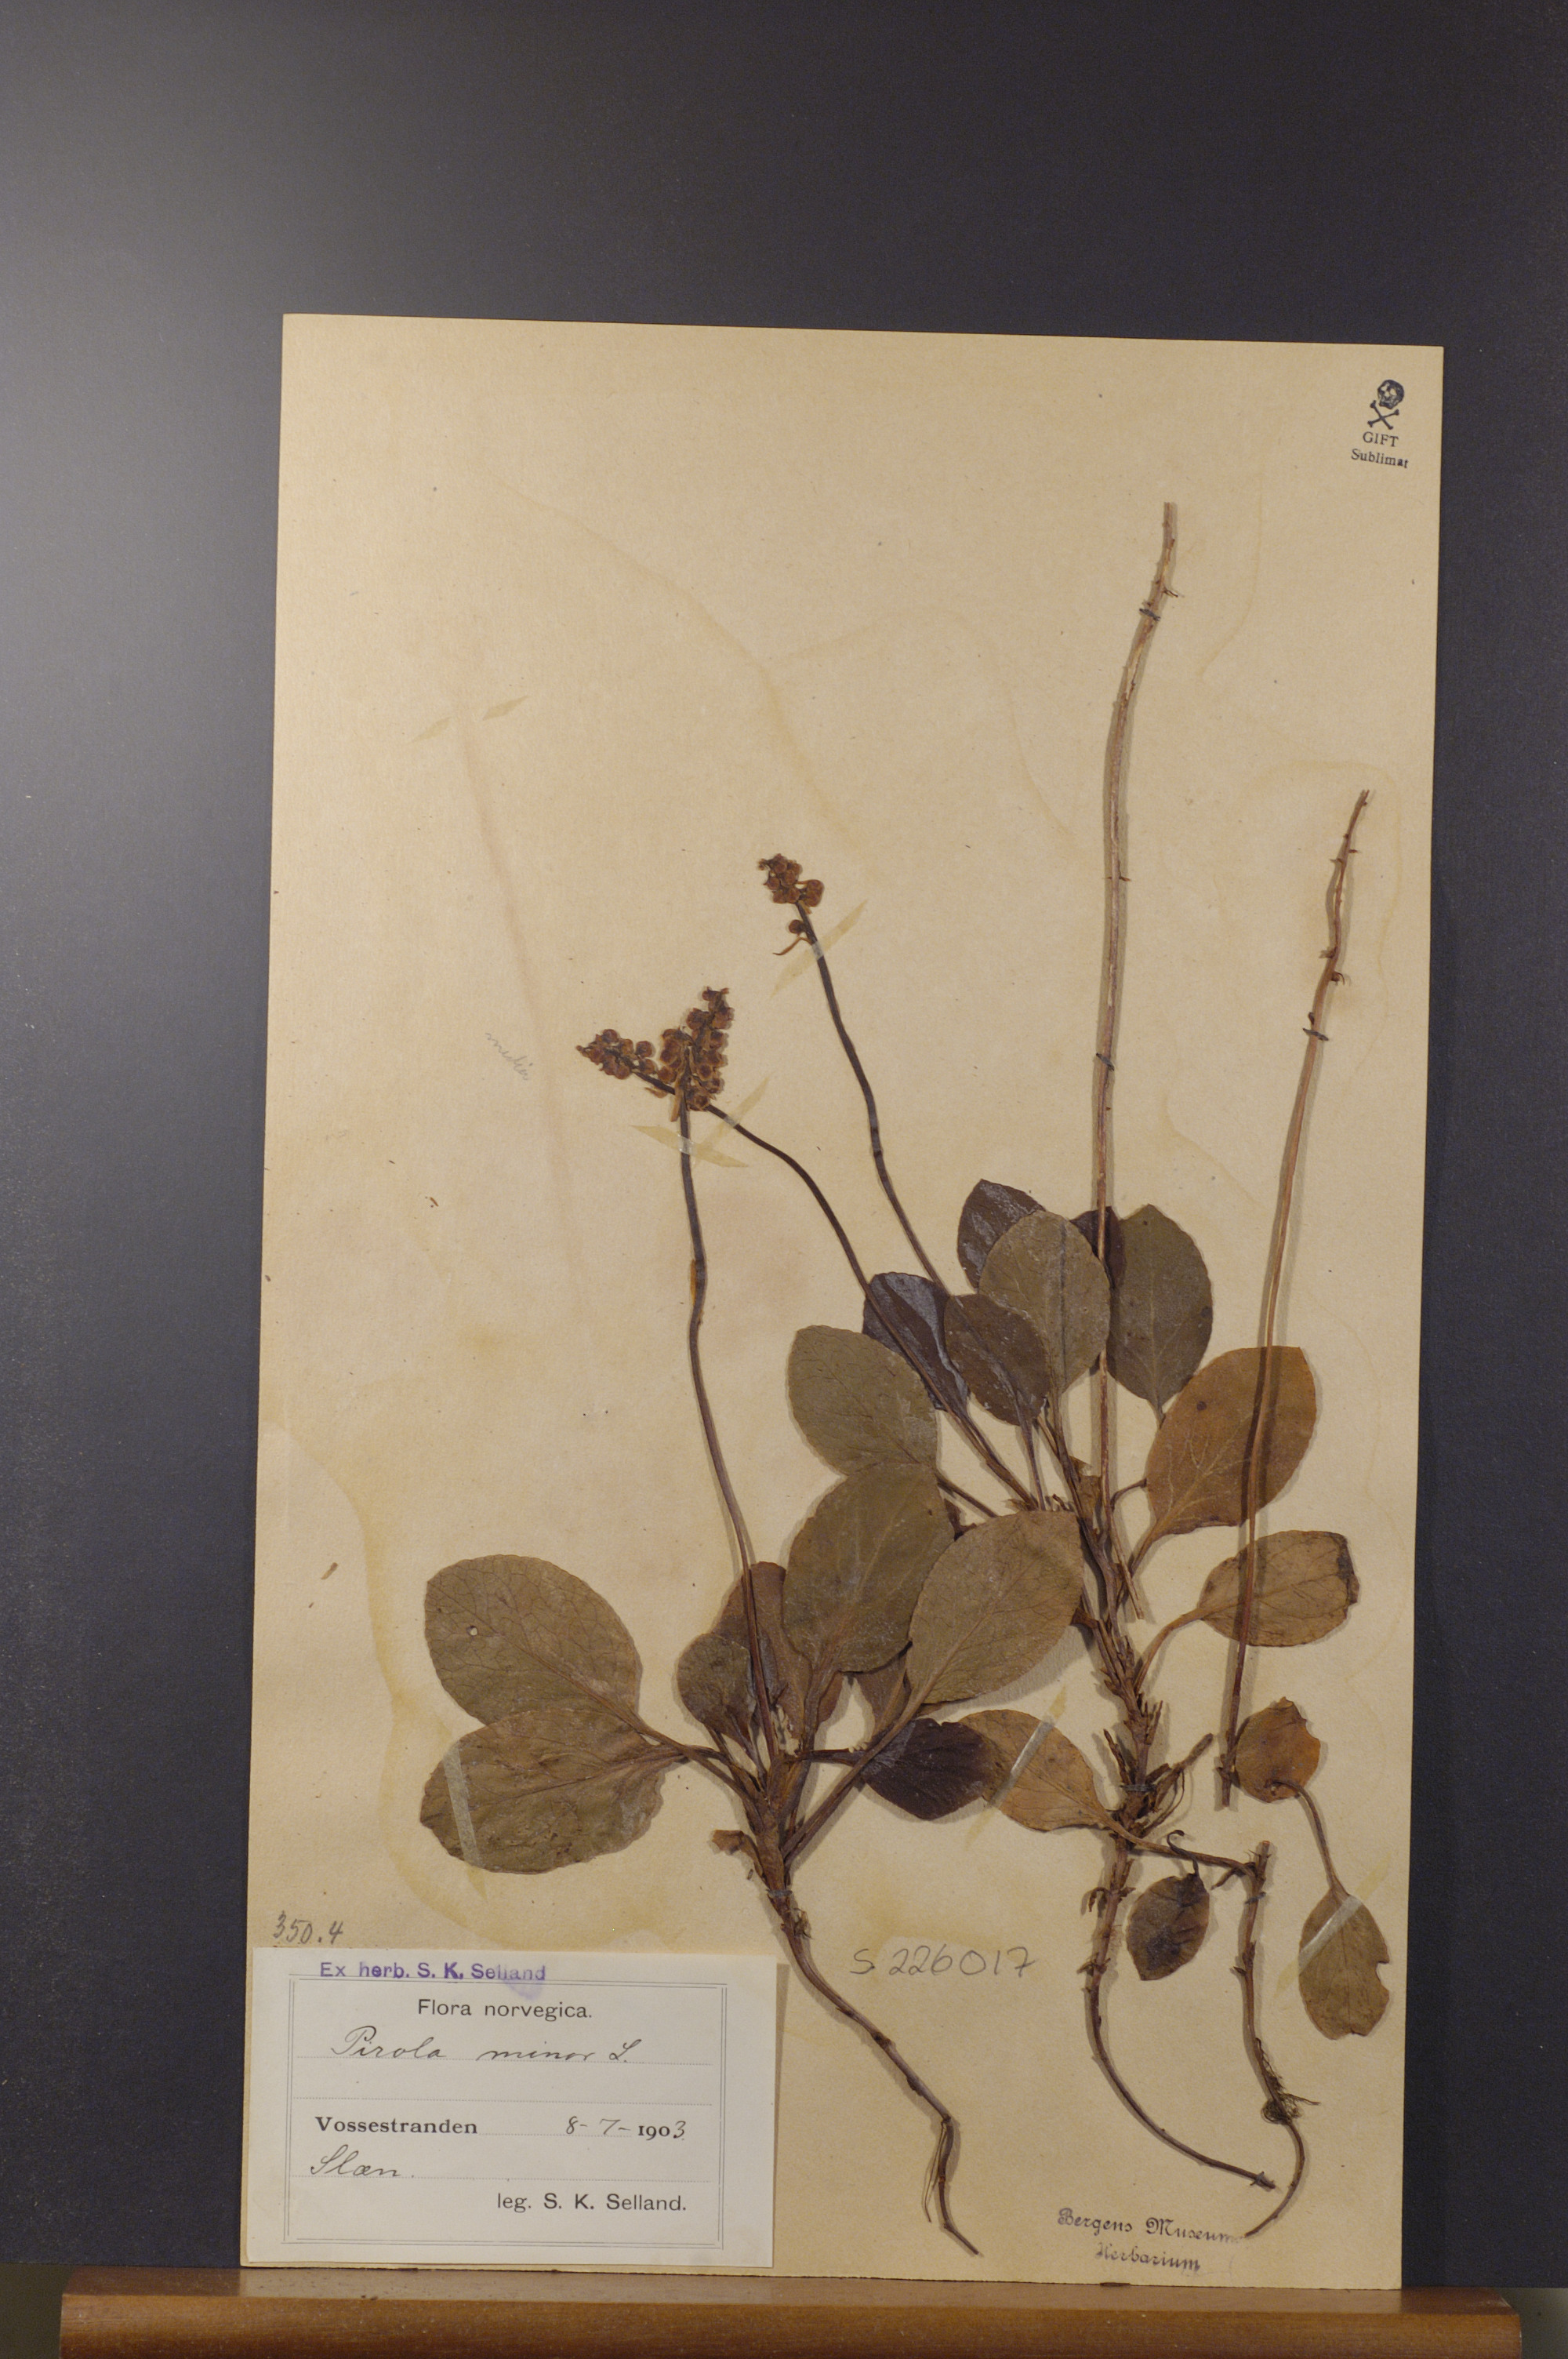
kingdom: Plantae
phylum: Tracheophyta
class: Magnoliopsida
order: Ericales
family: Ericaceae
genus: Pyrola
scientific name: Pyrola minor
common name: Common wintergreen
